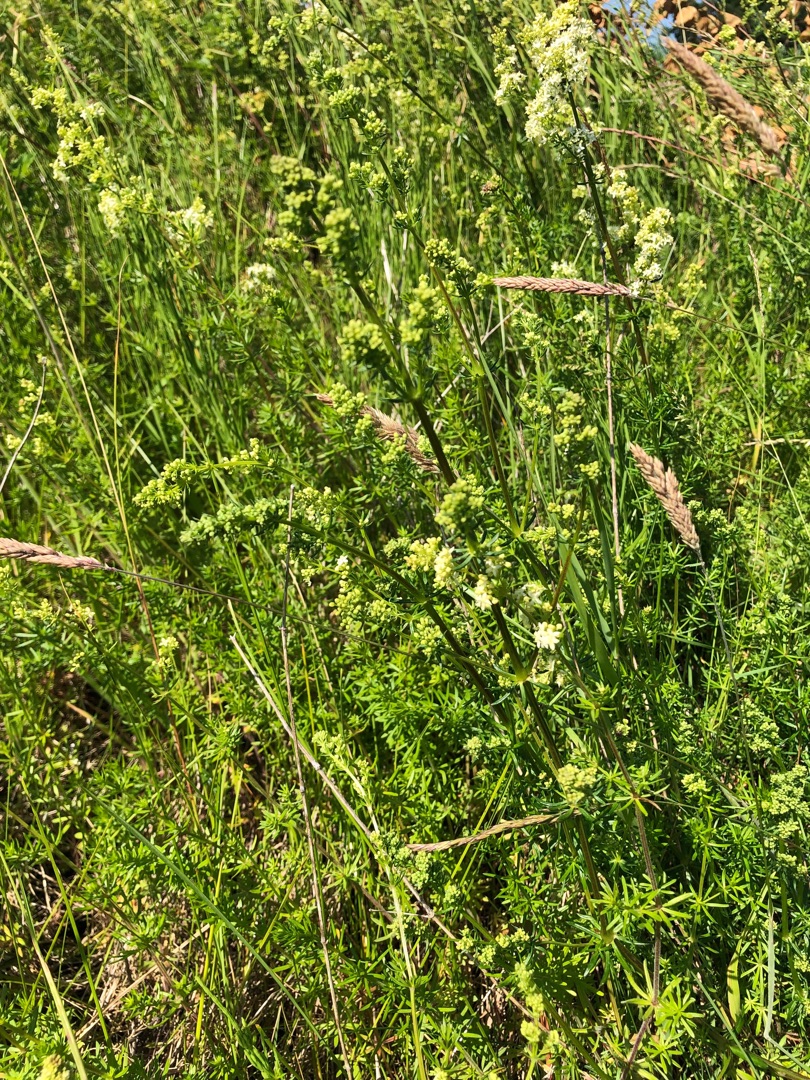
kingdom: Plantae
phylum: Tracheophyta
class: Magnoliopsida
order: Gentianales
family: Rubiaceae
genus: Galium
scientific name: Galium mollugo
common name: Hvid snerre
